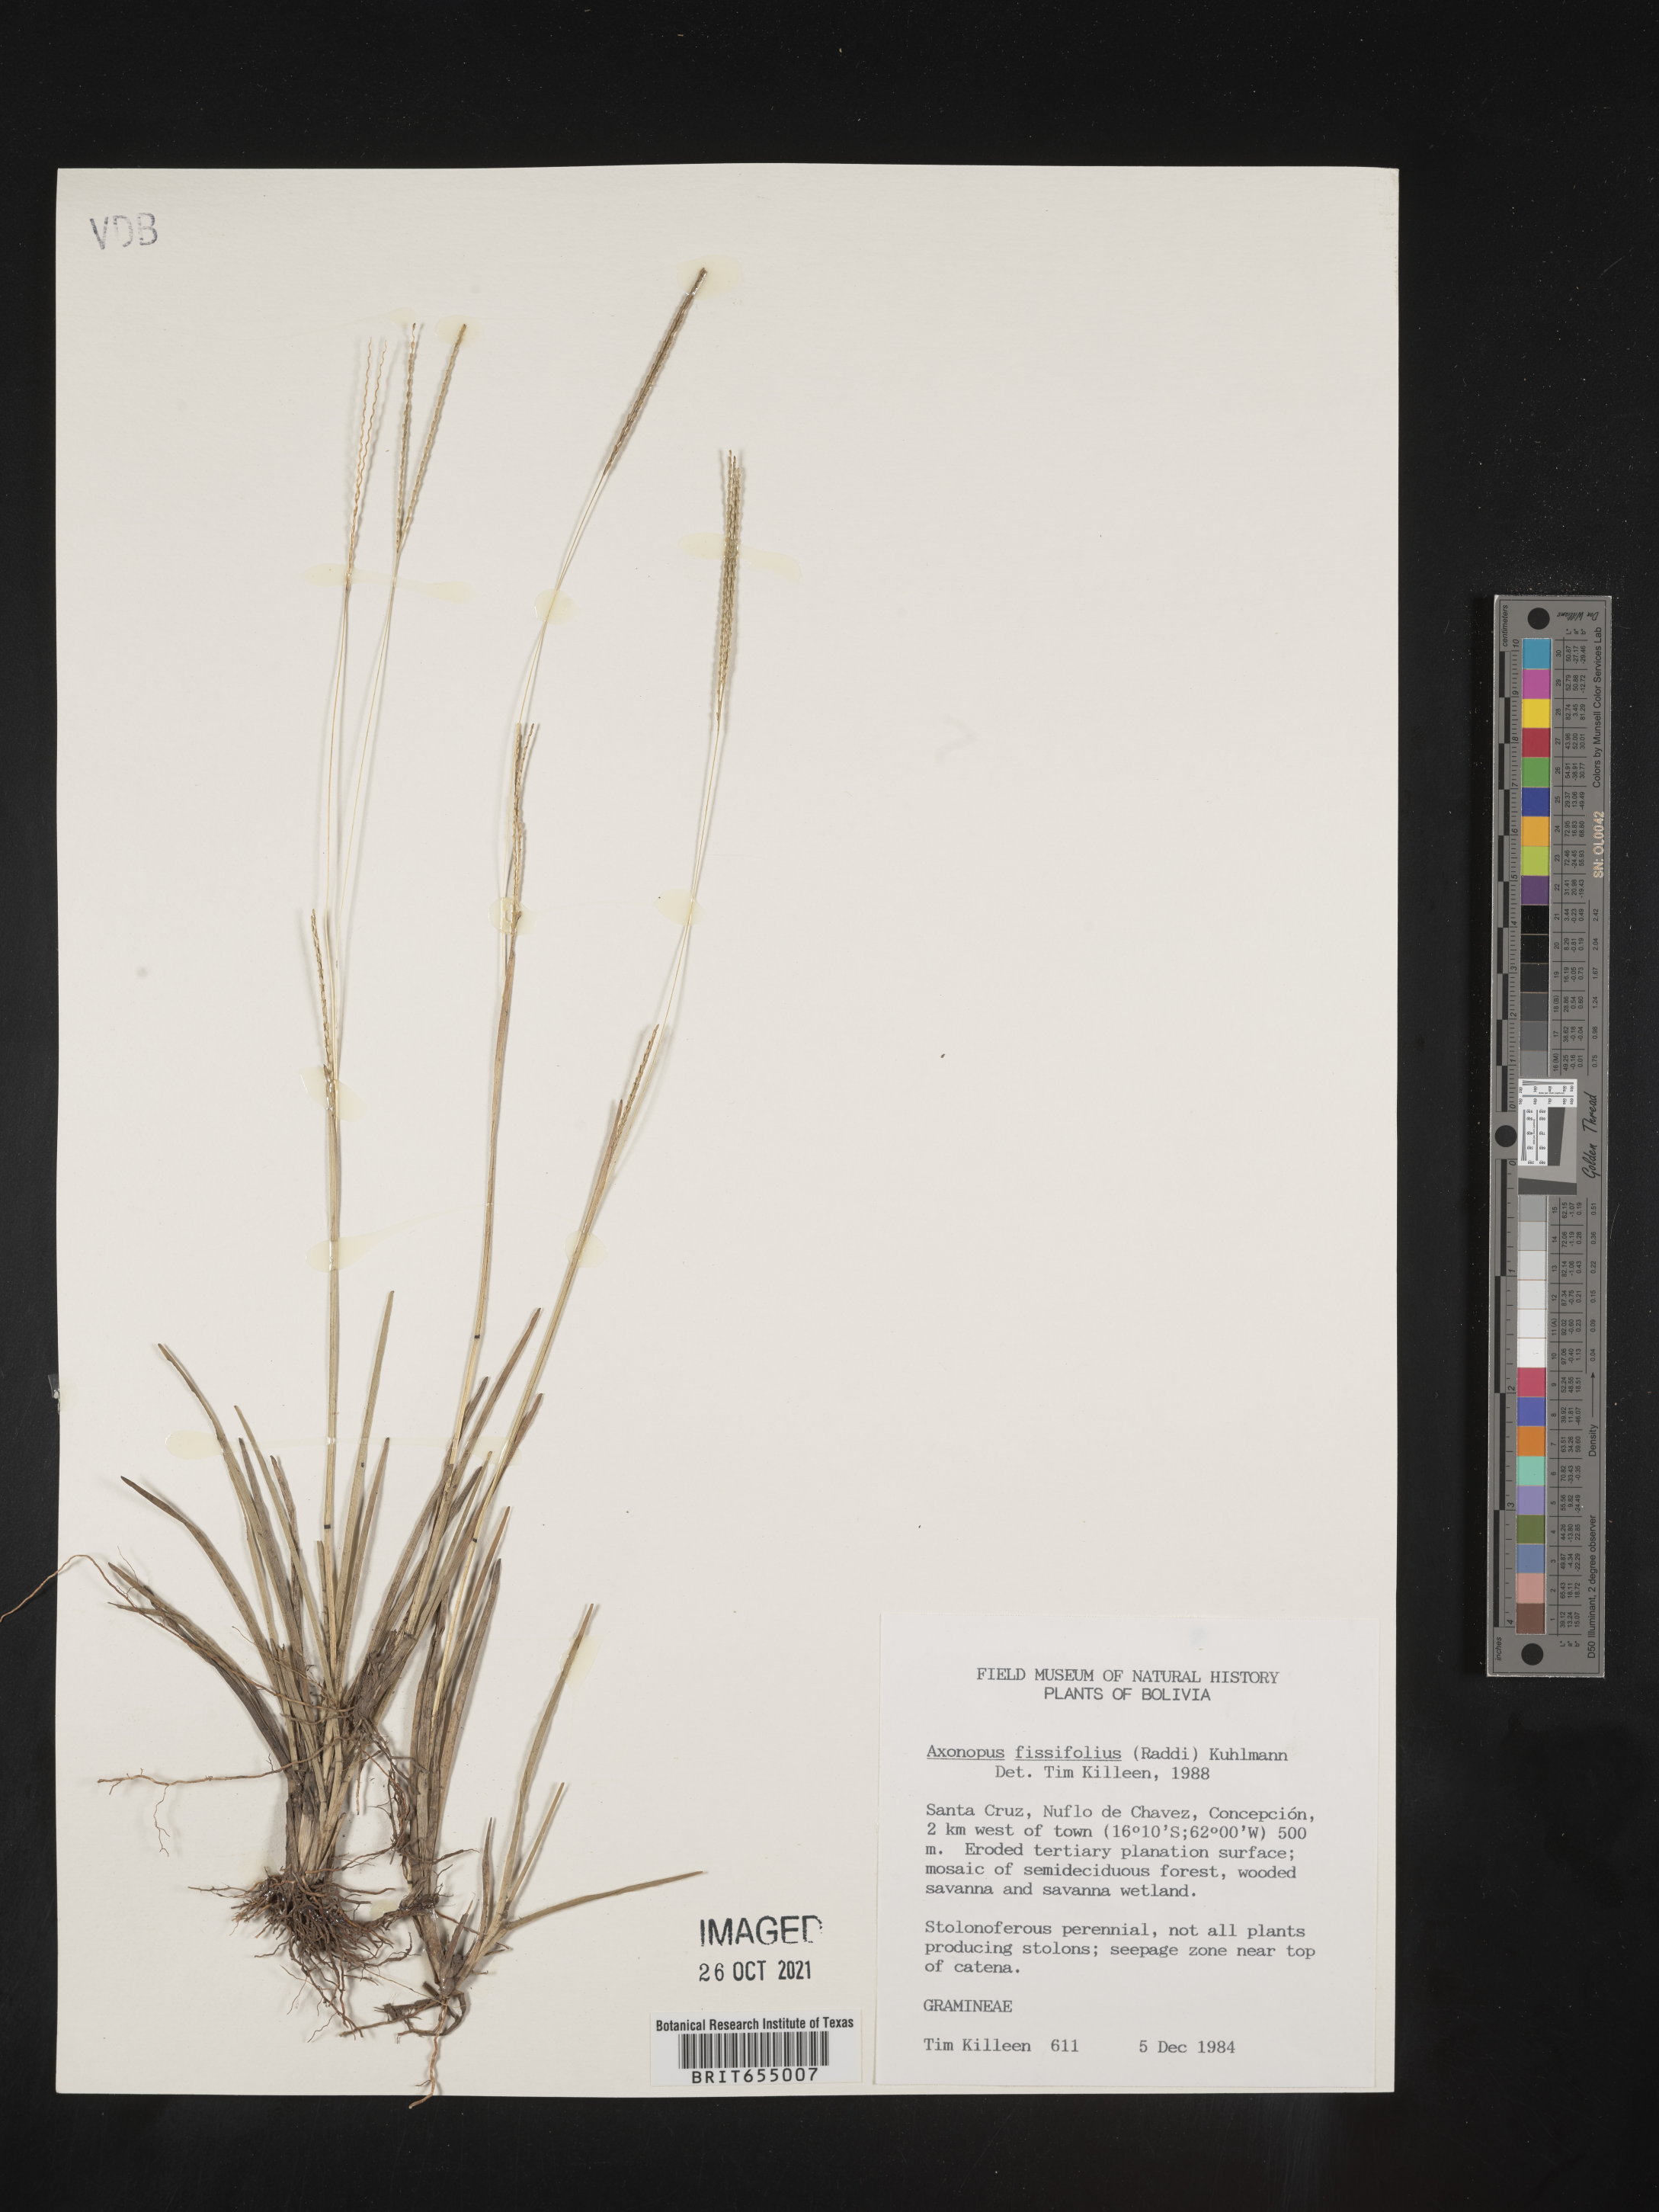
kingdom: Plantae
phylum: Tracheophyta
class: Liliopsida
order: Poales
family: Poaceae
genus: Axonopus
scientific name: Axonopus
